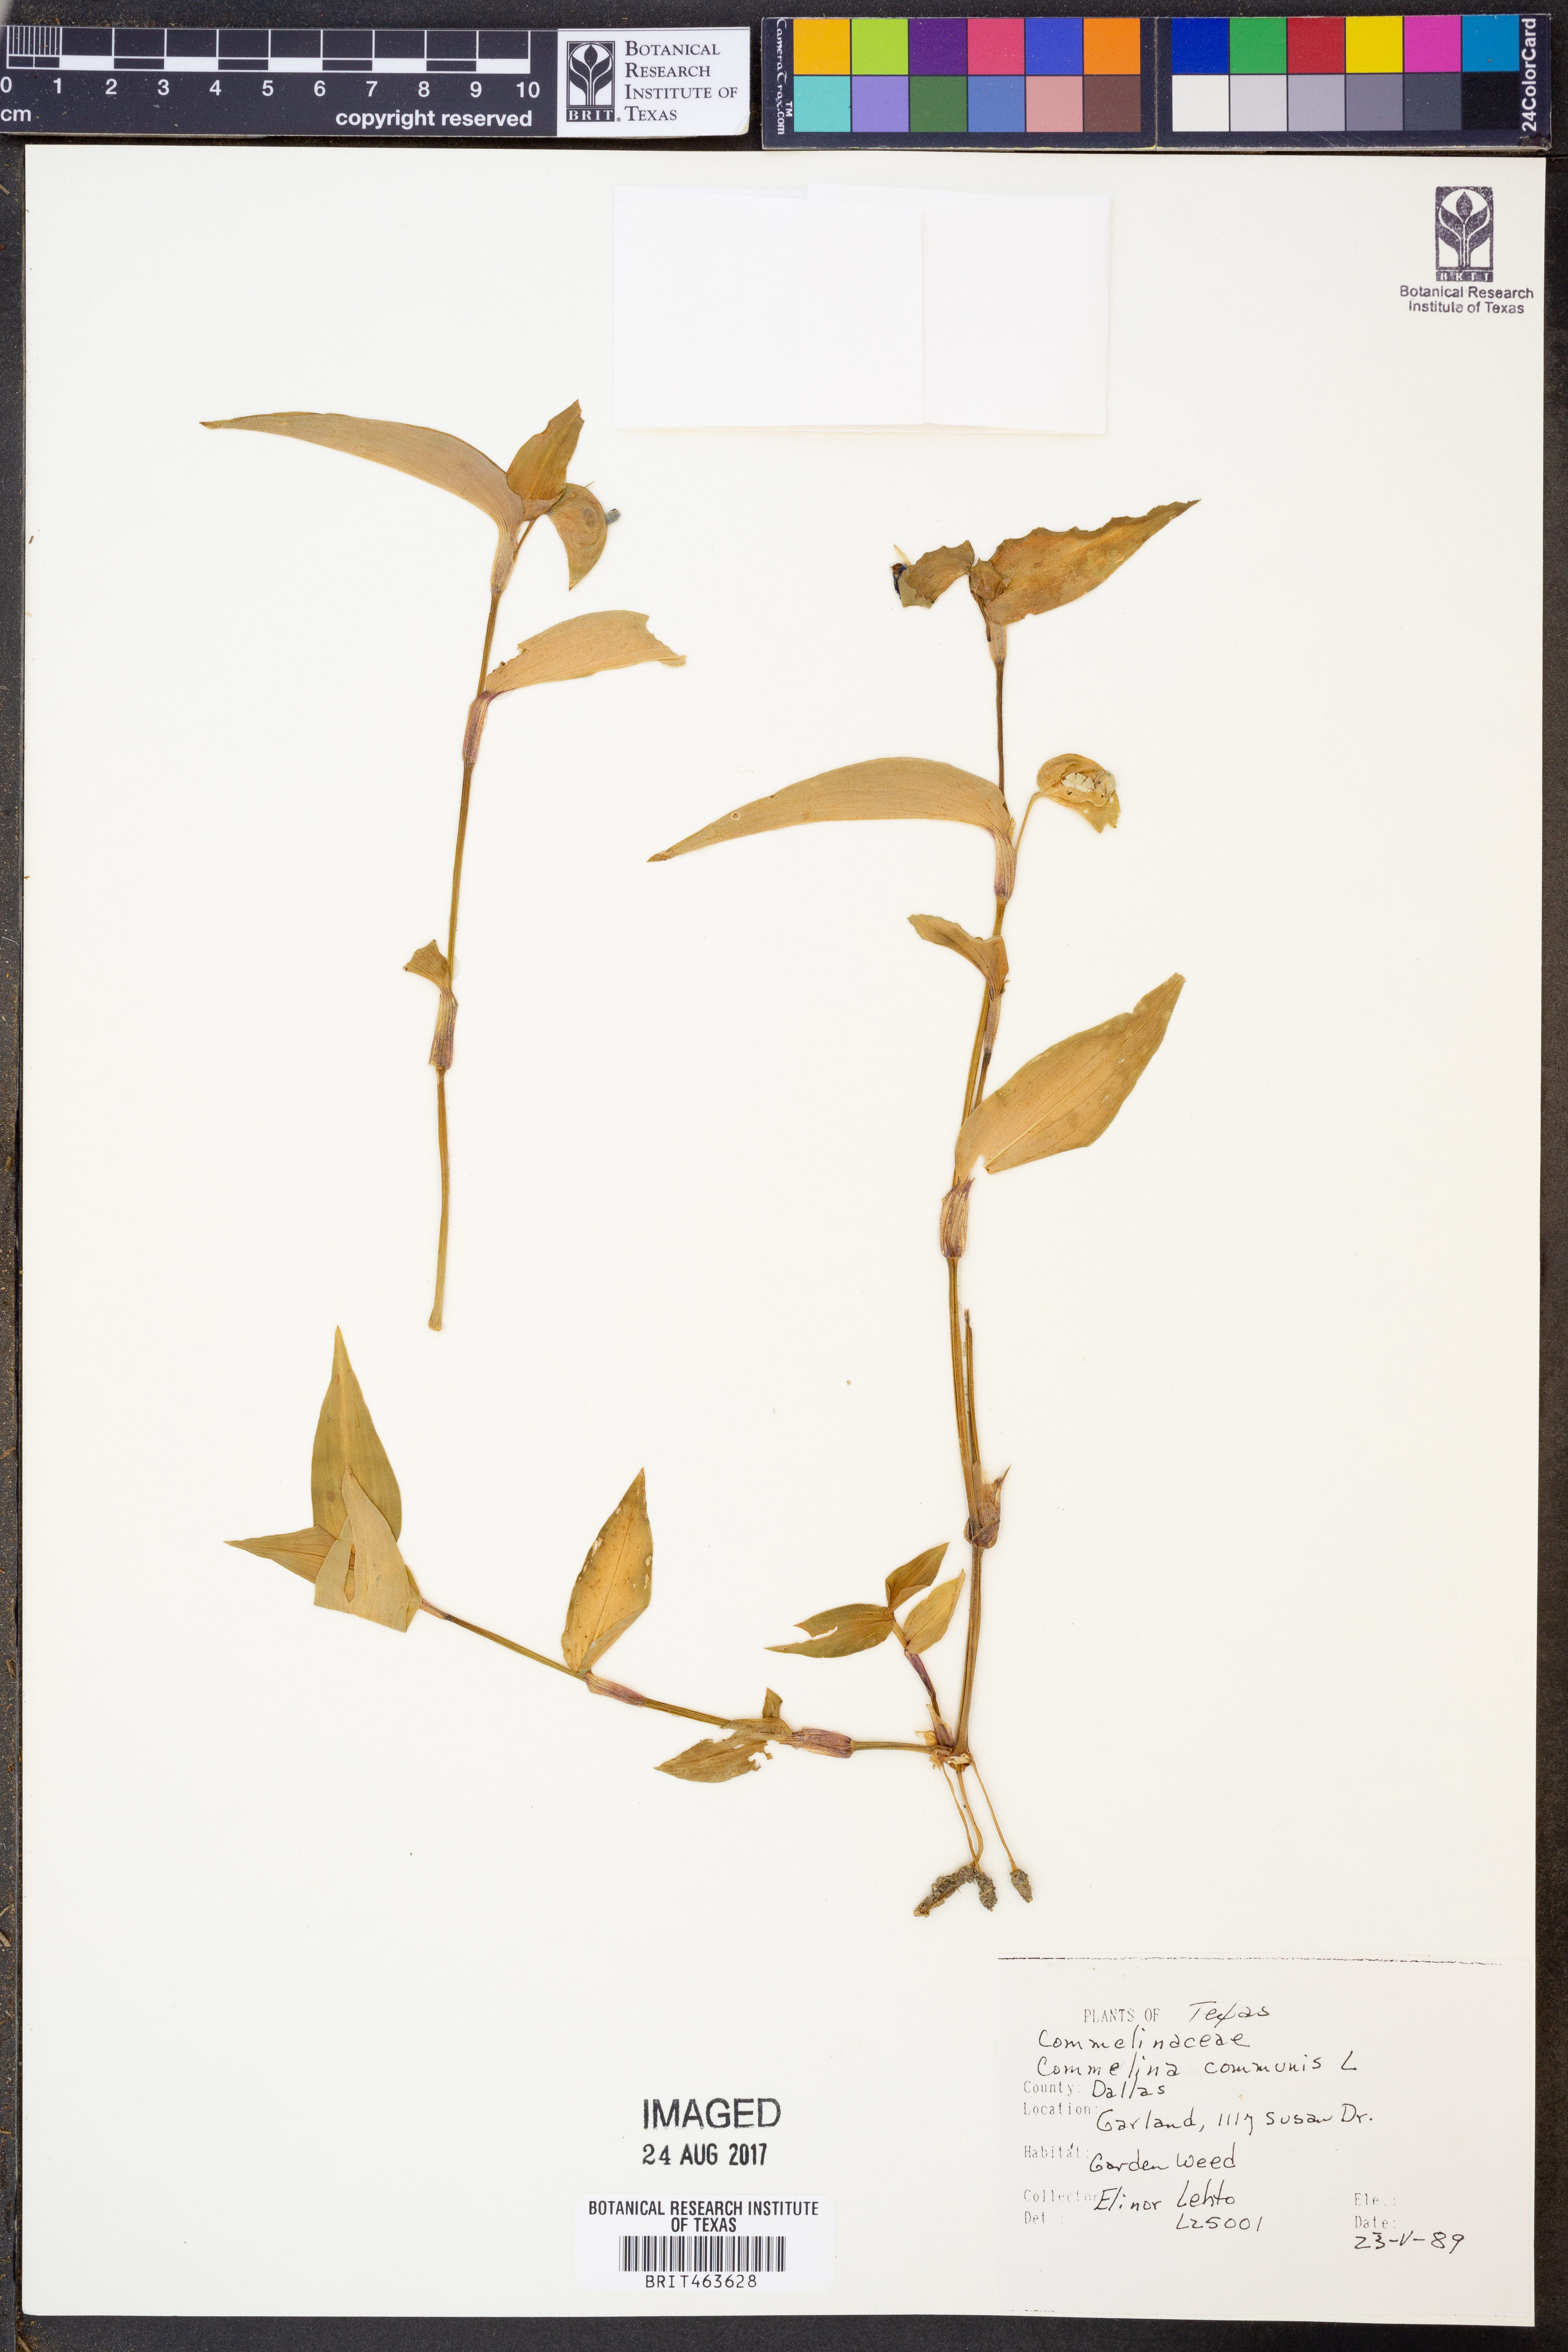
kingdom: Plantae
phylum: Tracheophyta
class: Liliopsida
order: Commelinales
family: Commelinaceae
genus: Commelina
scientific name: Commelina communis
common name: Asiatic dayflower
